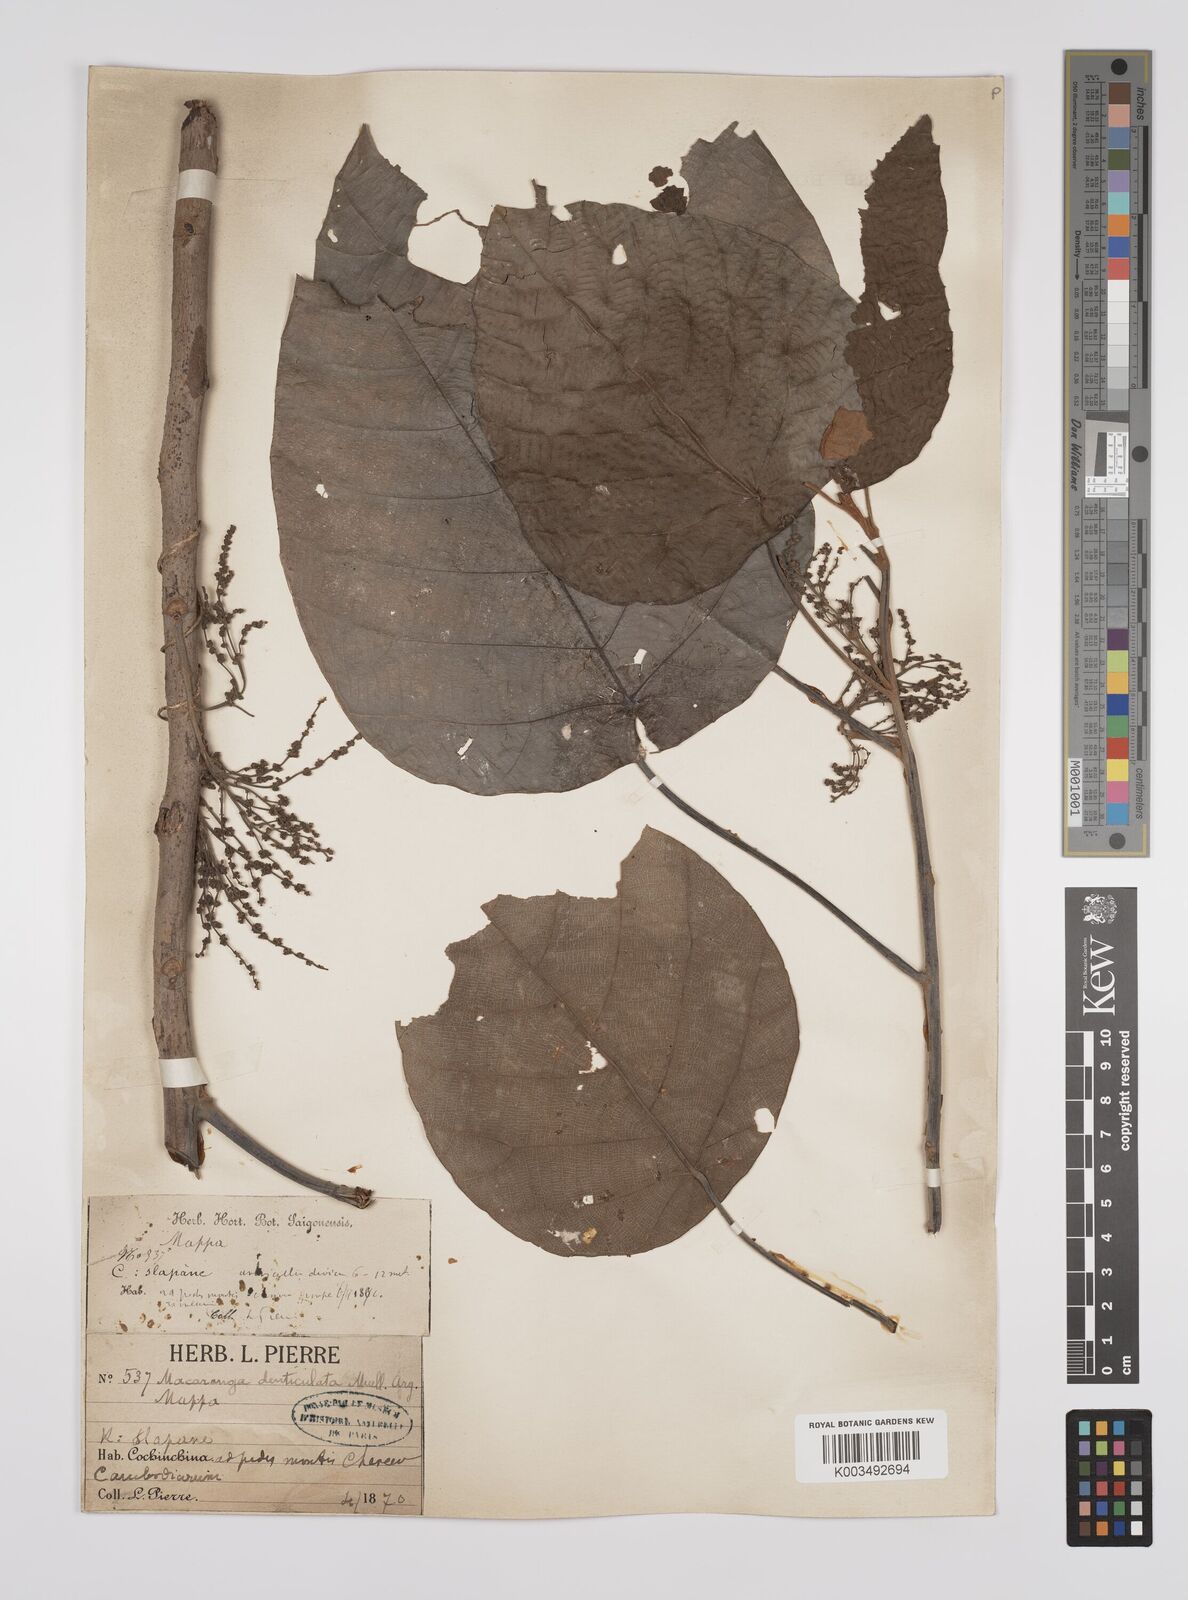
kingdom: Plantae
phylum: Tracheophyta
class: Magnoliopsida
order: Malpighiales
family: Euphorbiaceae
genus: Macaranga
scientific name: Macaranga denticulata
